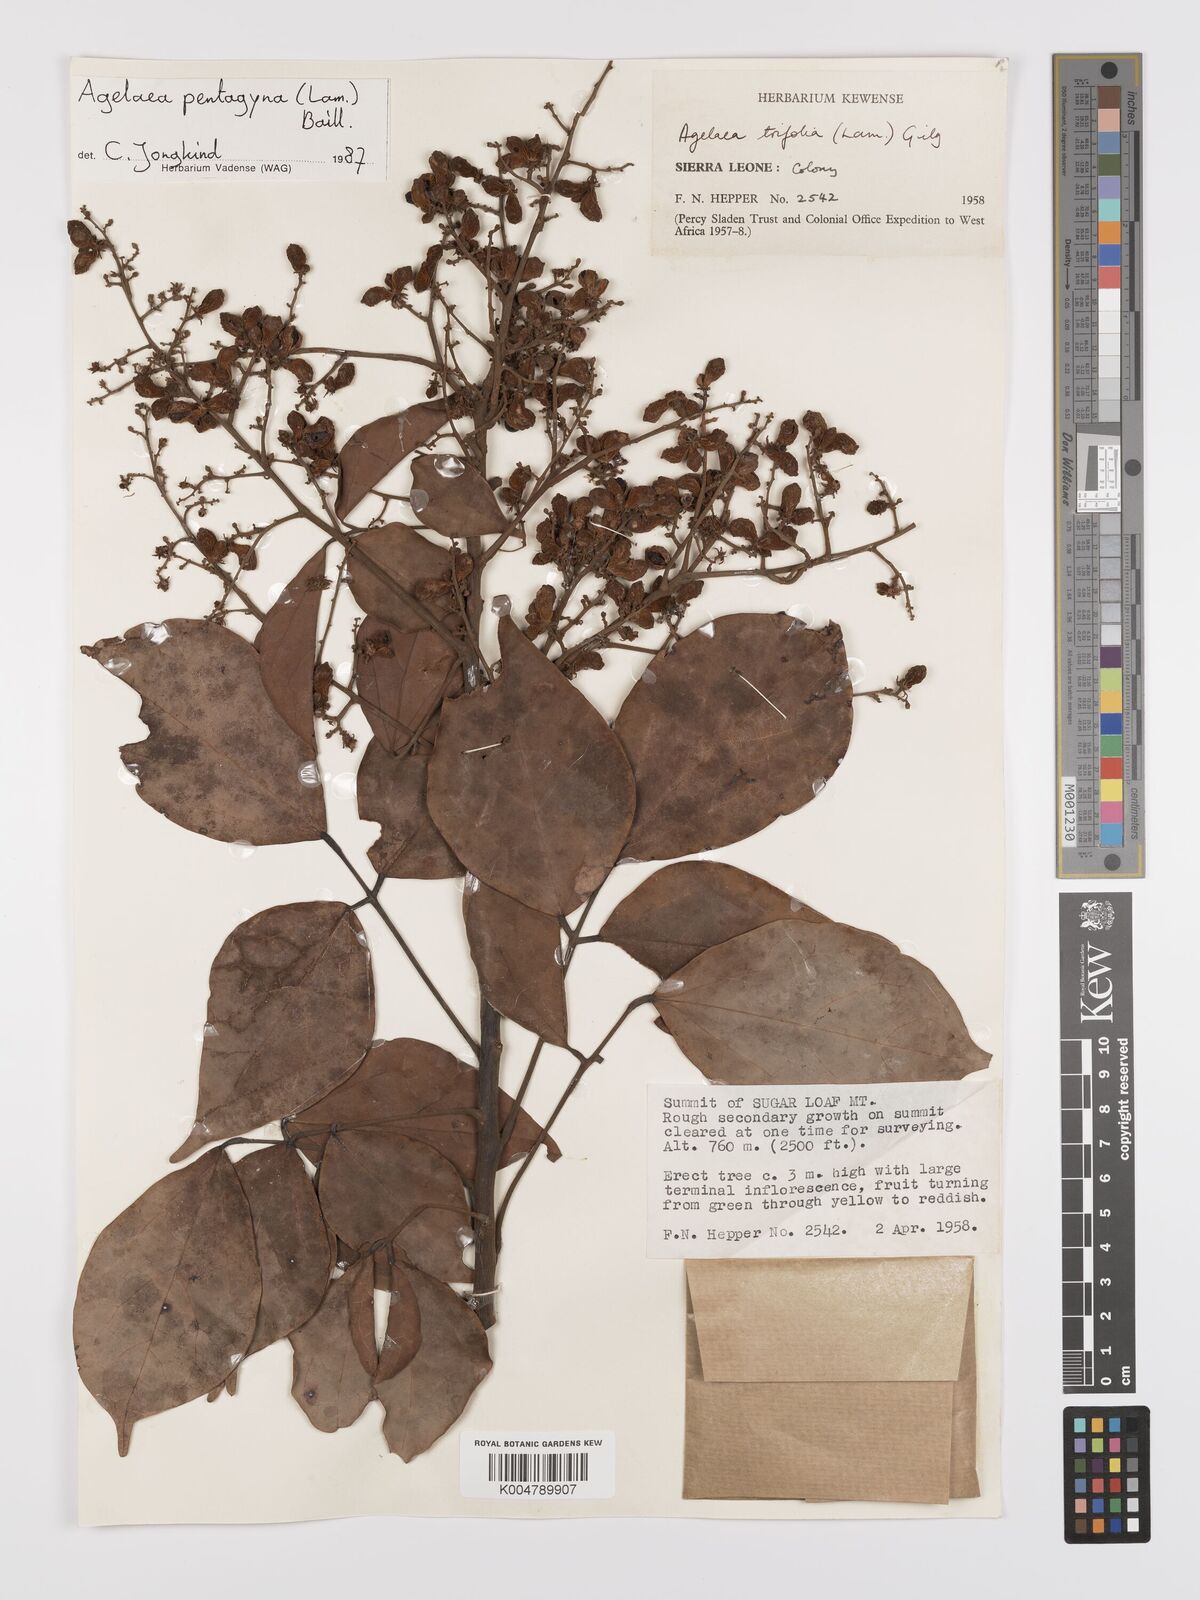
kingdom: Plantae
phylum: Tracheophyta
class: Magnoliopsida
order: Oxalidales
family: Connaraceae
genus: Agelaea
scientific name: Agelaea pentagyna
